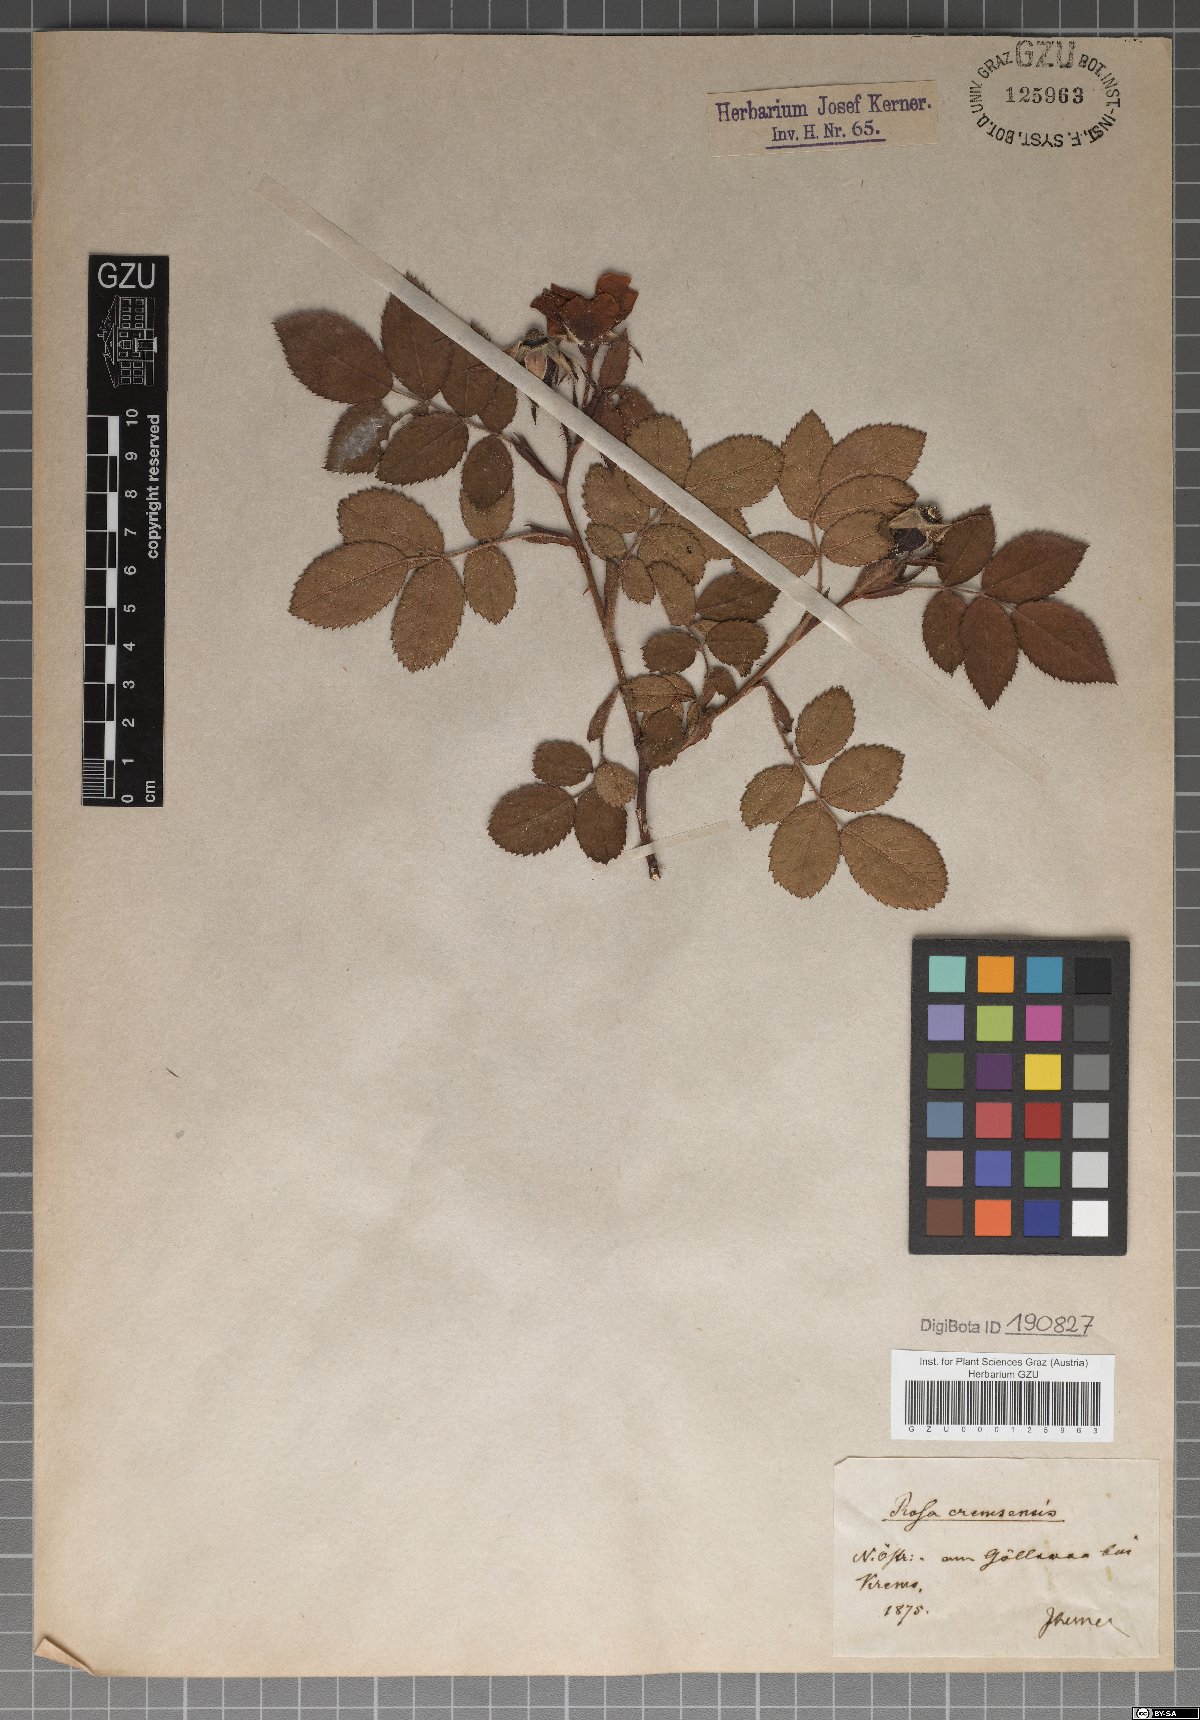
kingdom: Plantae
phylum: Tracheophyta
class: Magnoliopsida
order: Rosales
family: Rosaceae
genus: Rosa
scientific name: Rosa mollis
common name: Rose
